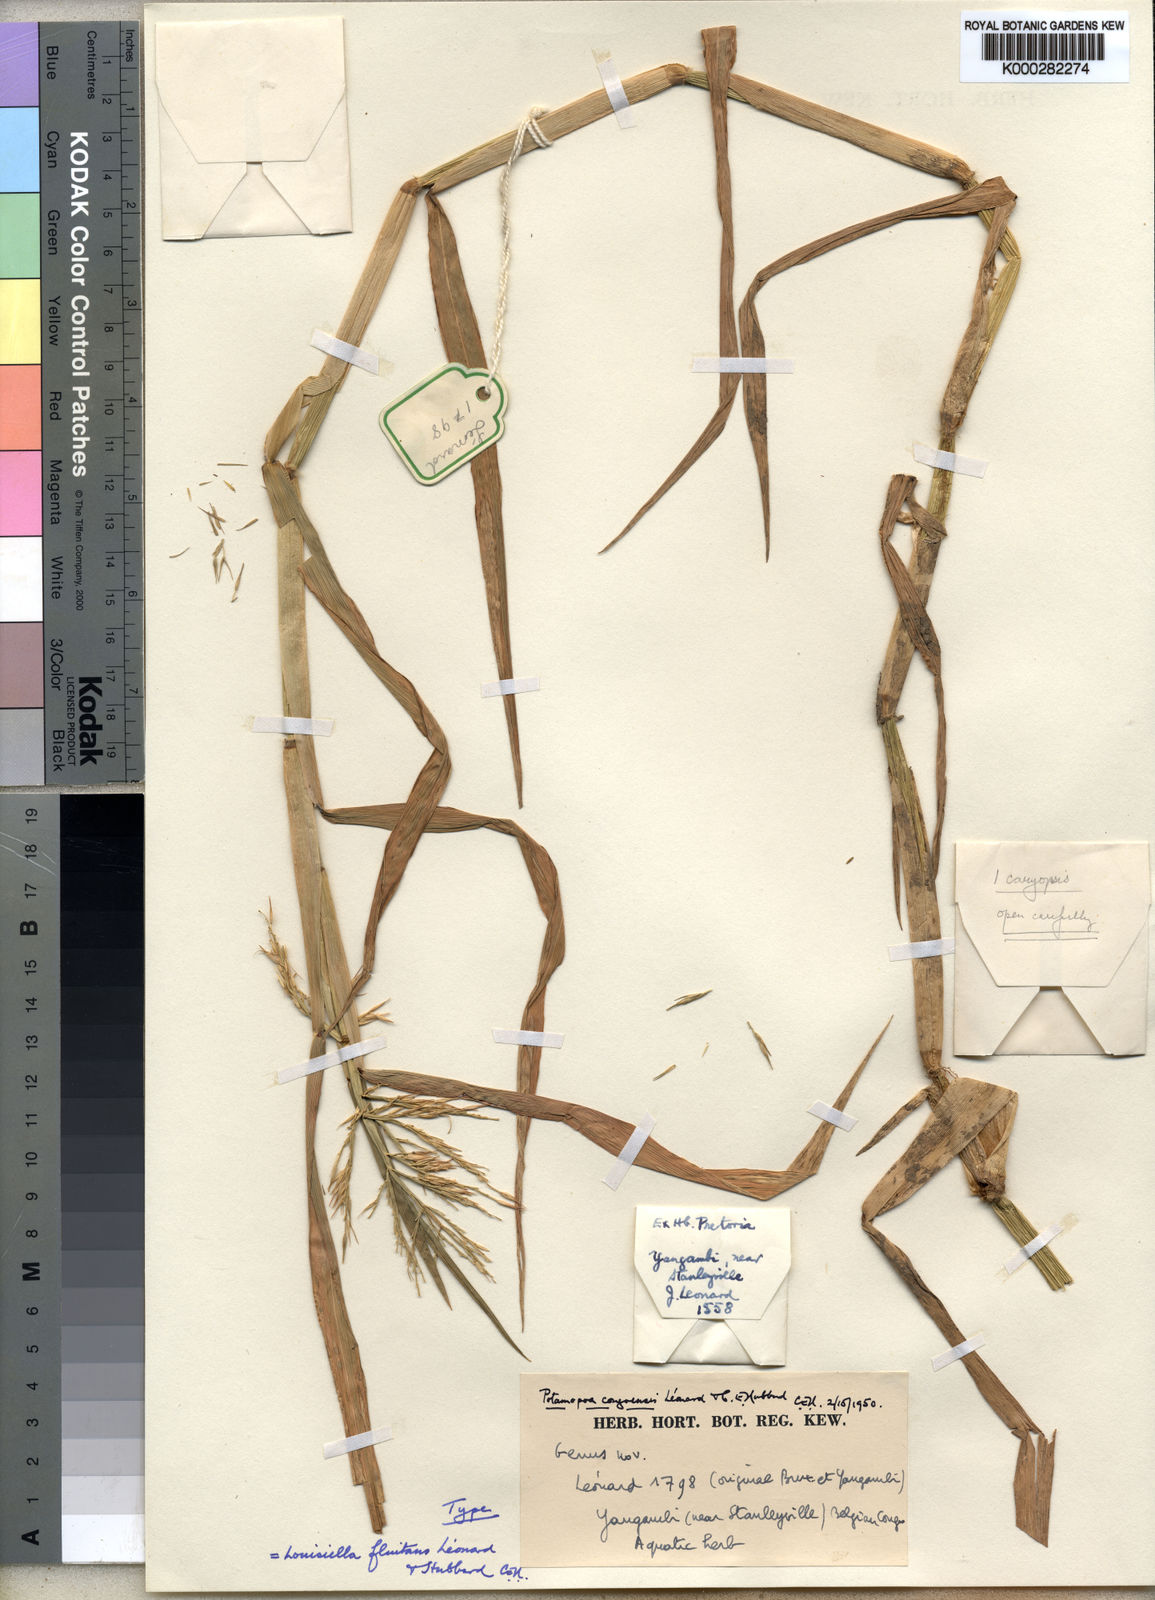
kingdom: Plantae
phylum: Tracheophyta
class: Liliopsida
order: Poales
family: Poaceae
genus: Louisiella
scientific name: Louisiella
